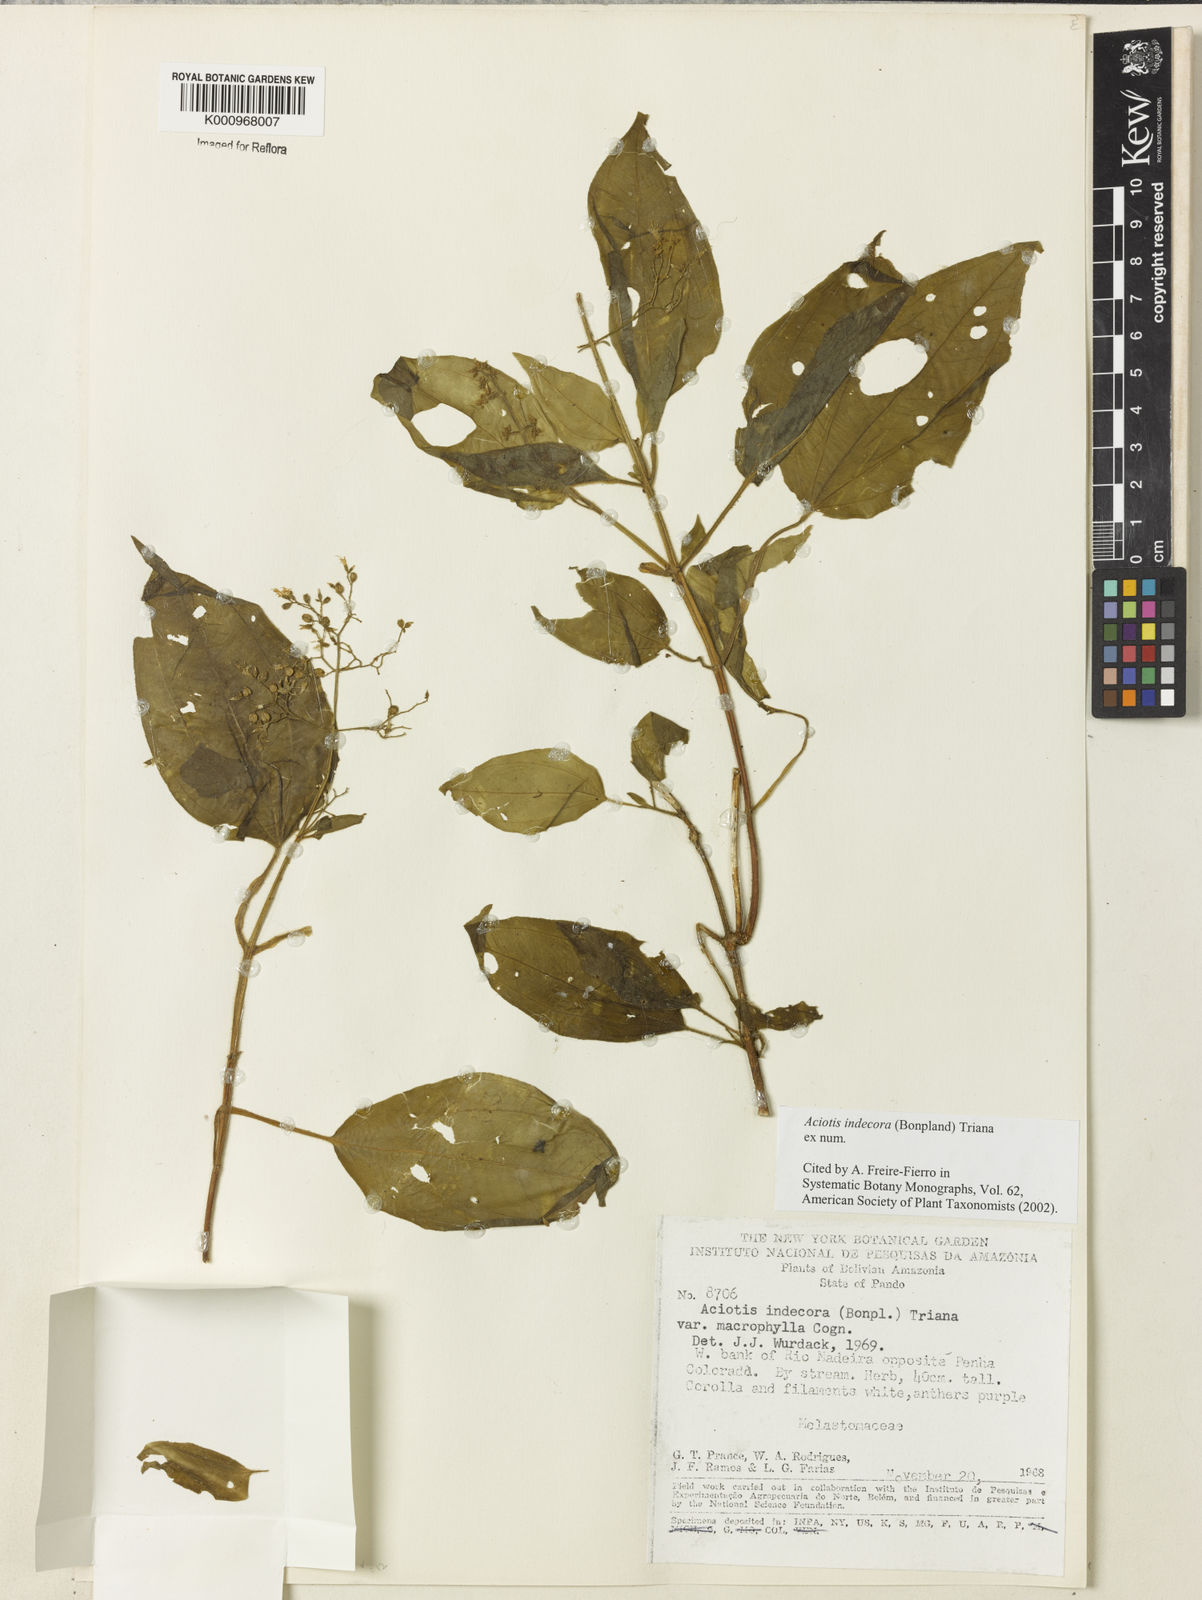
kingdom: Plantae
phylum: Tracheophyta
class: Magnoliopsida
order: Myrtales
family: Melastomataceae
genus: Aciotis
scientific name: Aciotis indecora
